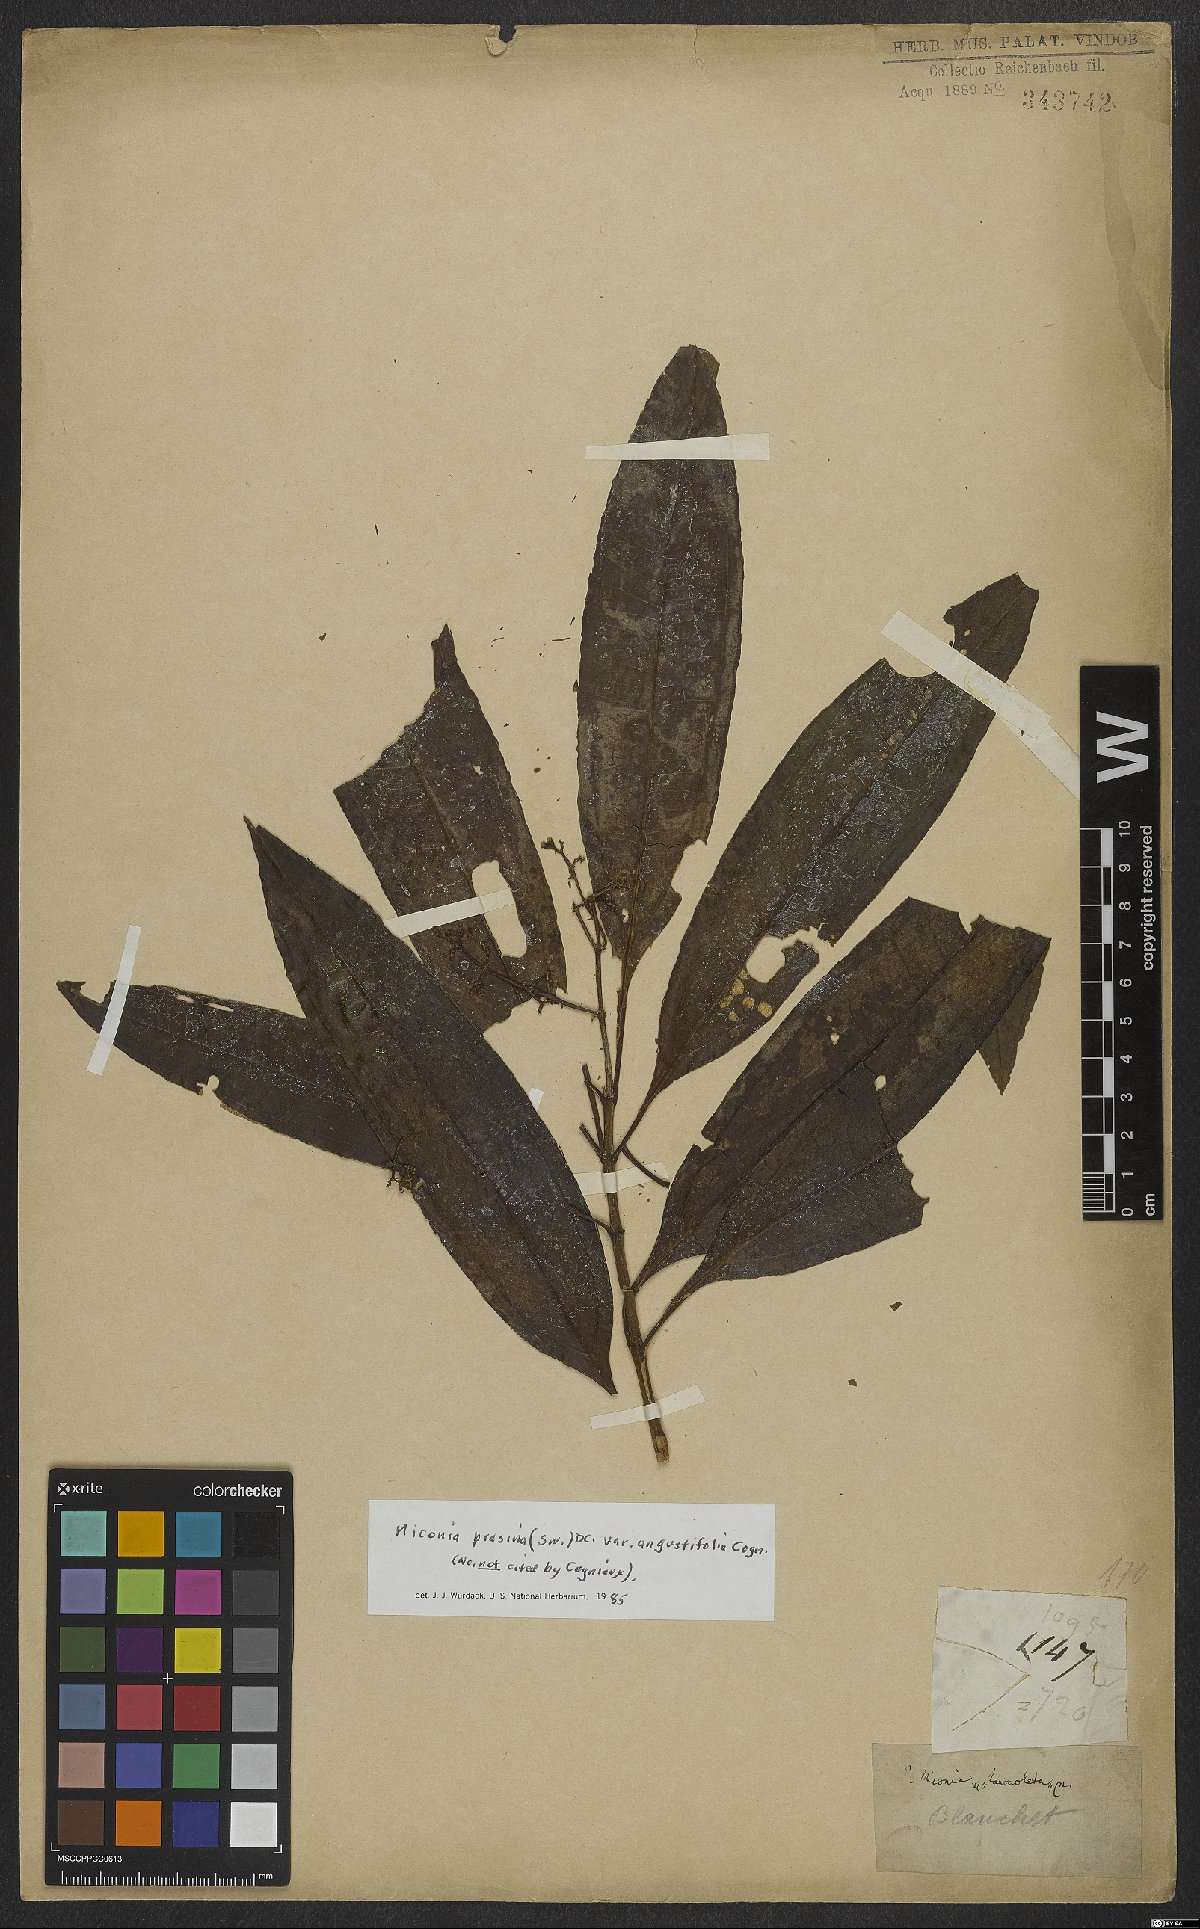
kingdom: Plantae
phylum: Tracheophyta
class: Magnoliopsida
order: Myrtales
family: Melastomataceae
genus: Miconia
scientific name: Miconia prasina
